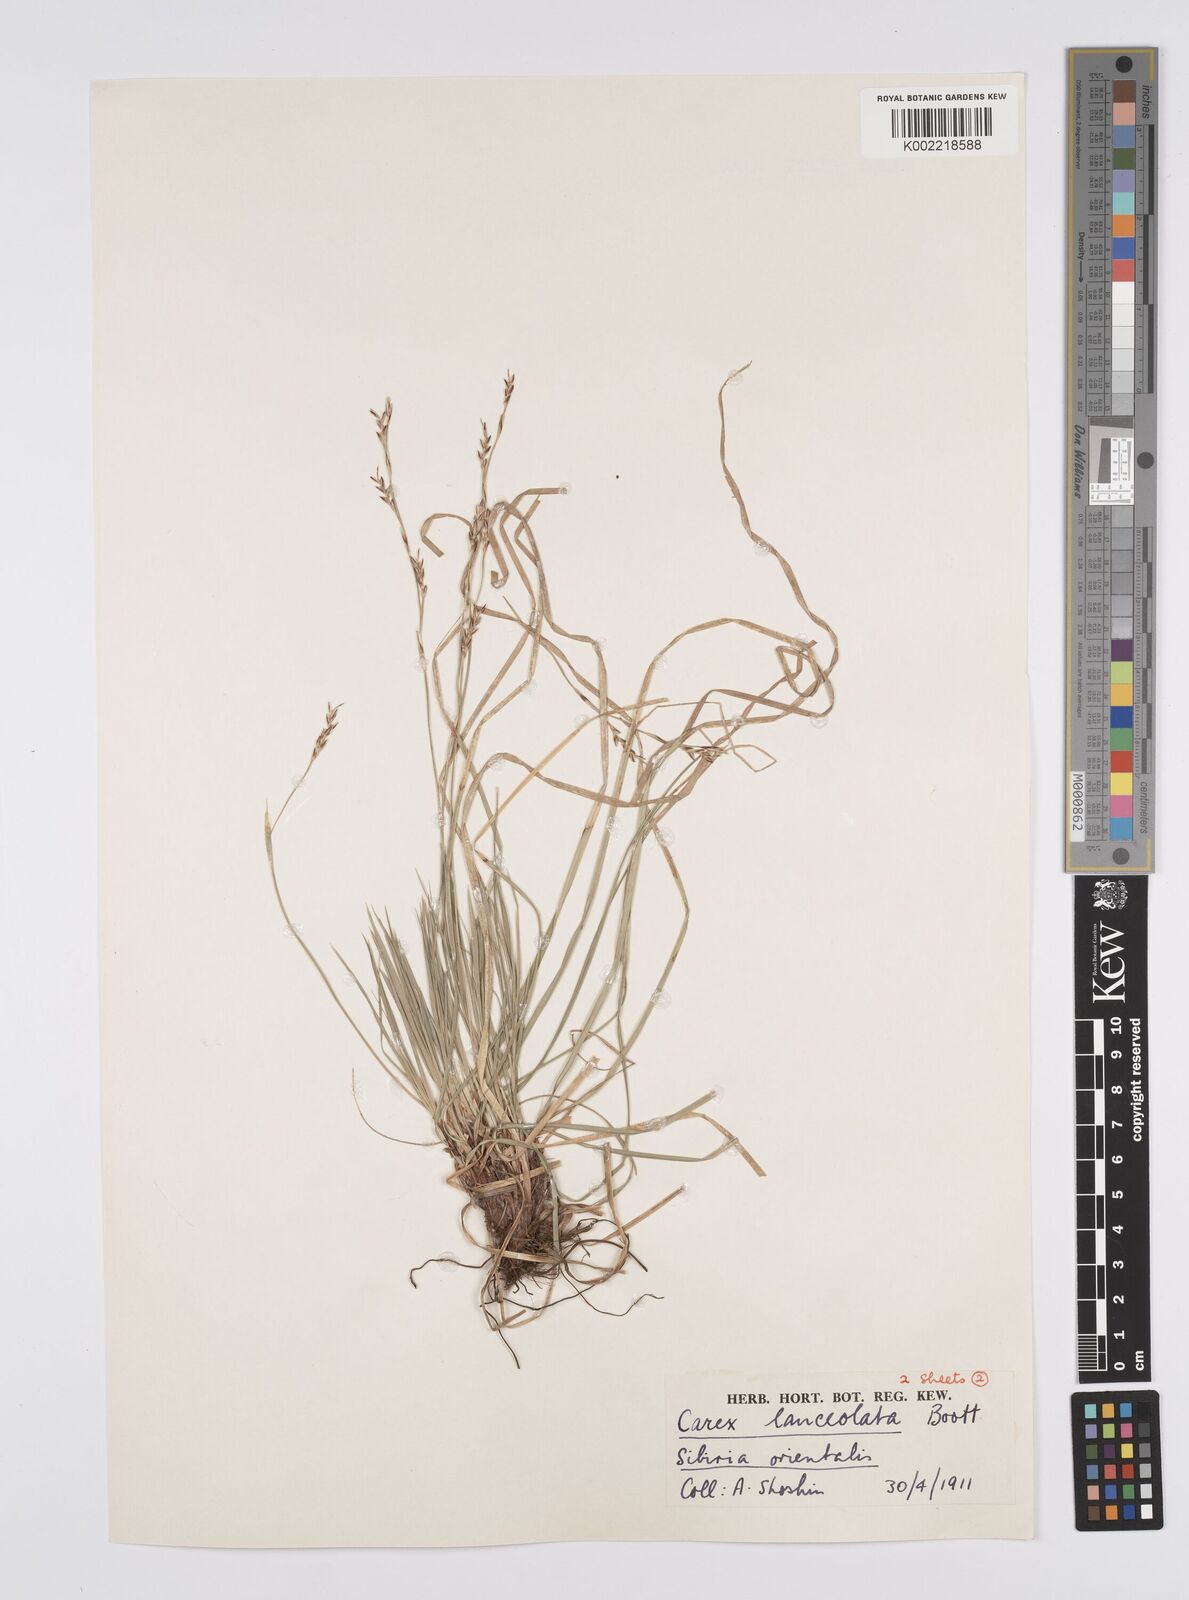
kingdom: Plantae
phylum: Tracheophyta
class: Liliopsida
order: Poales
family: Cyperaceae
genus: Carex
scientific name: Carex lanceolata
